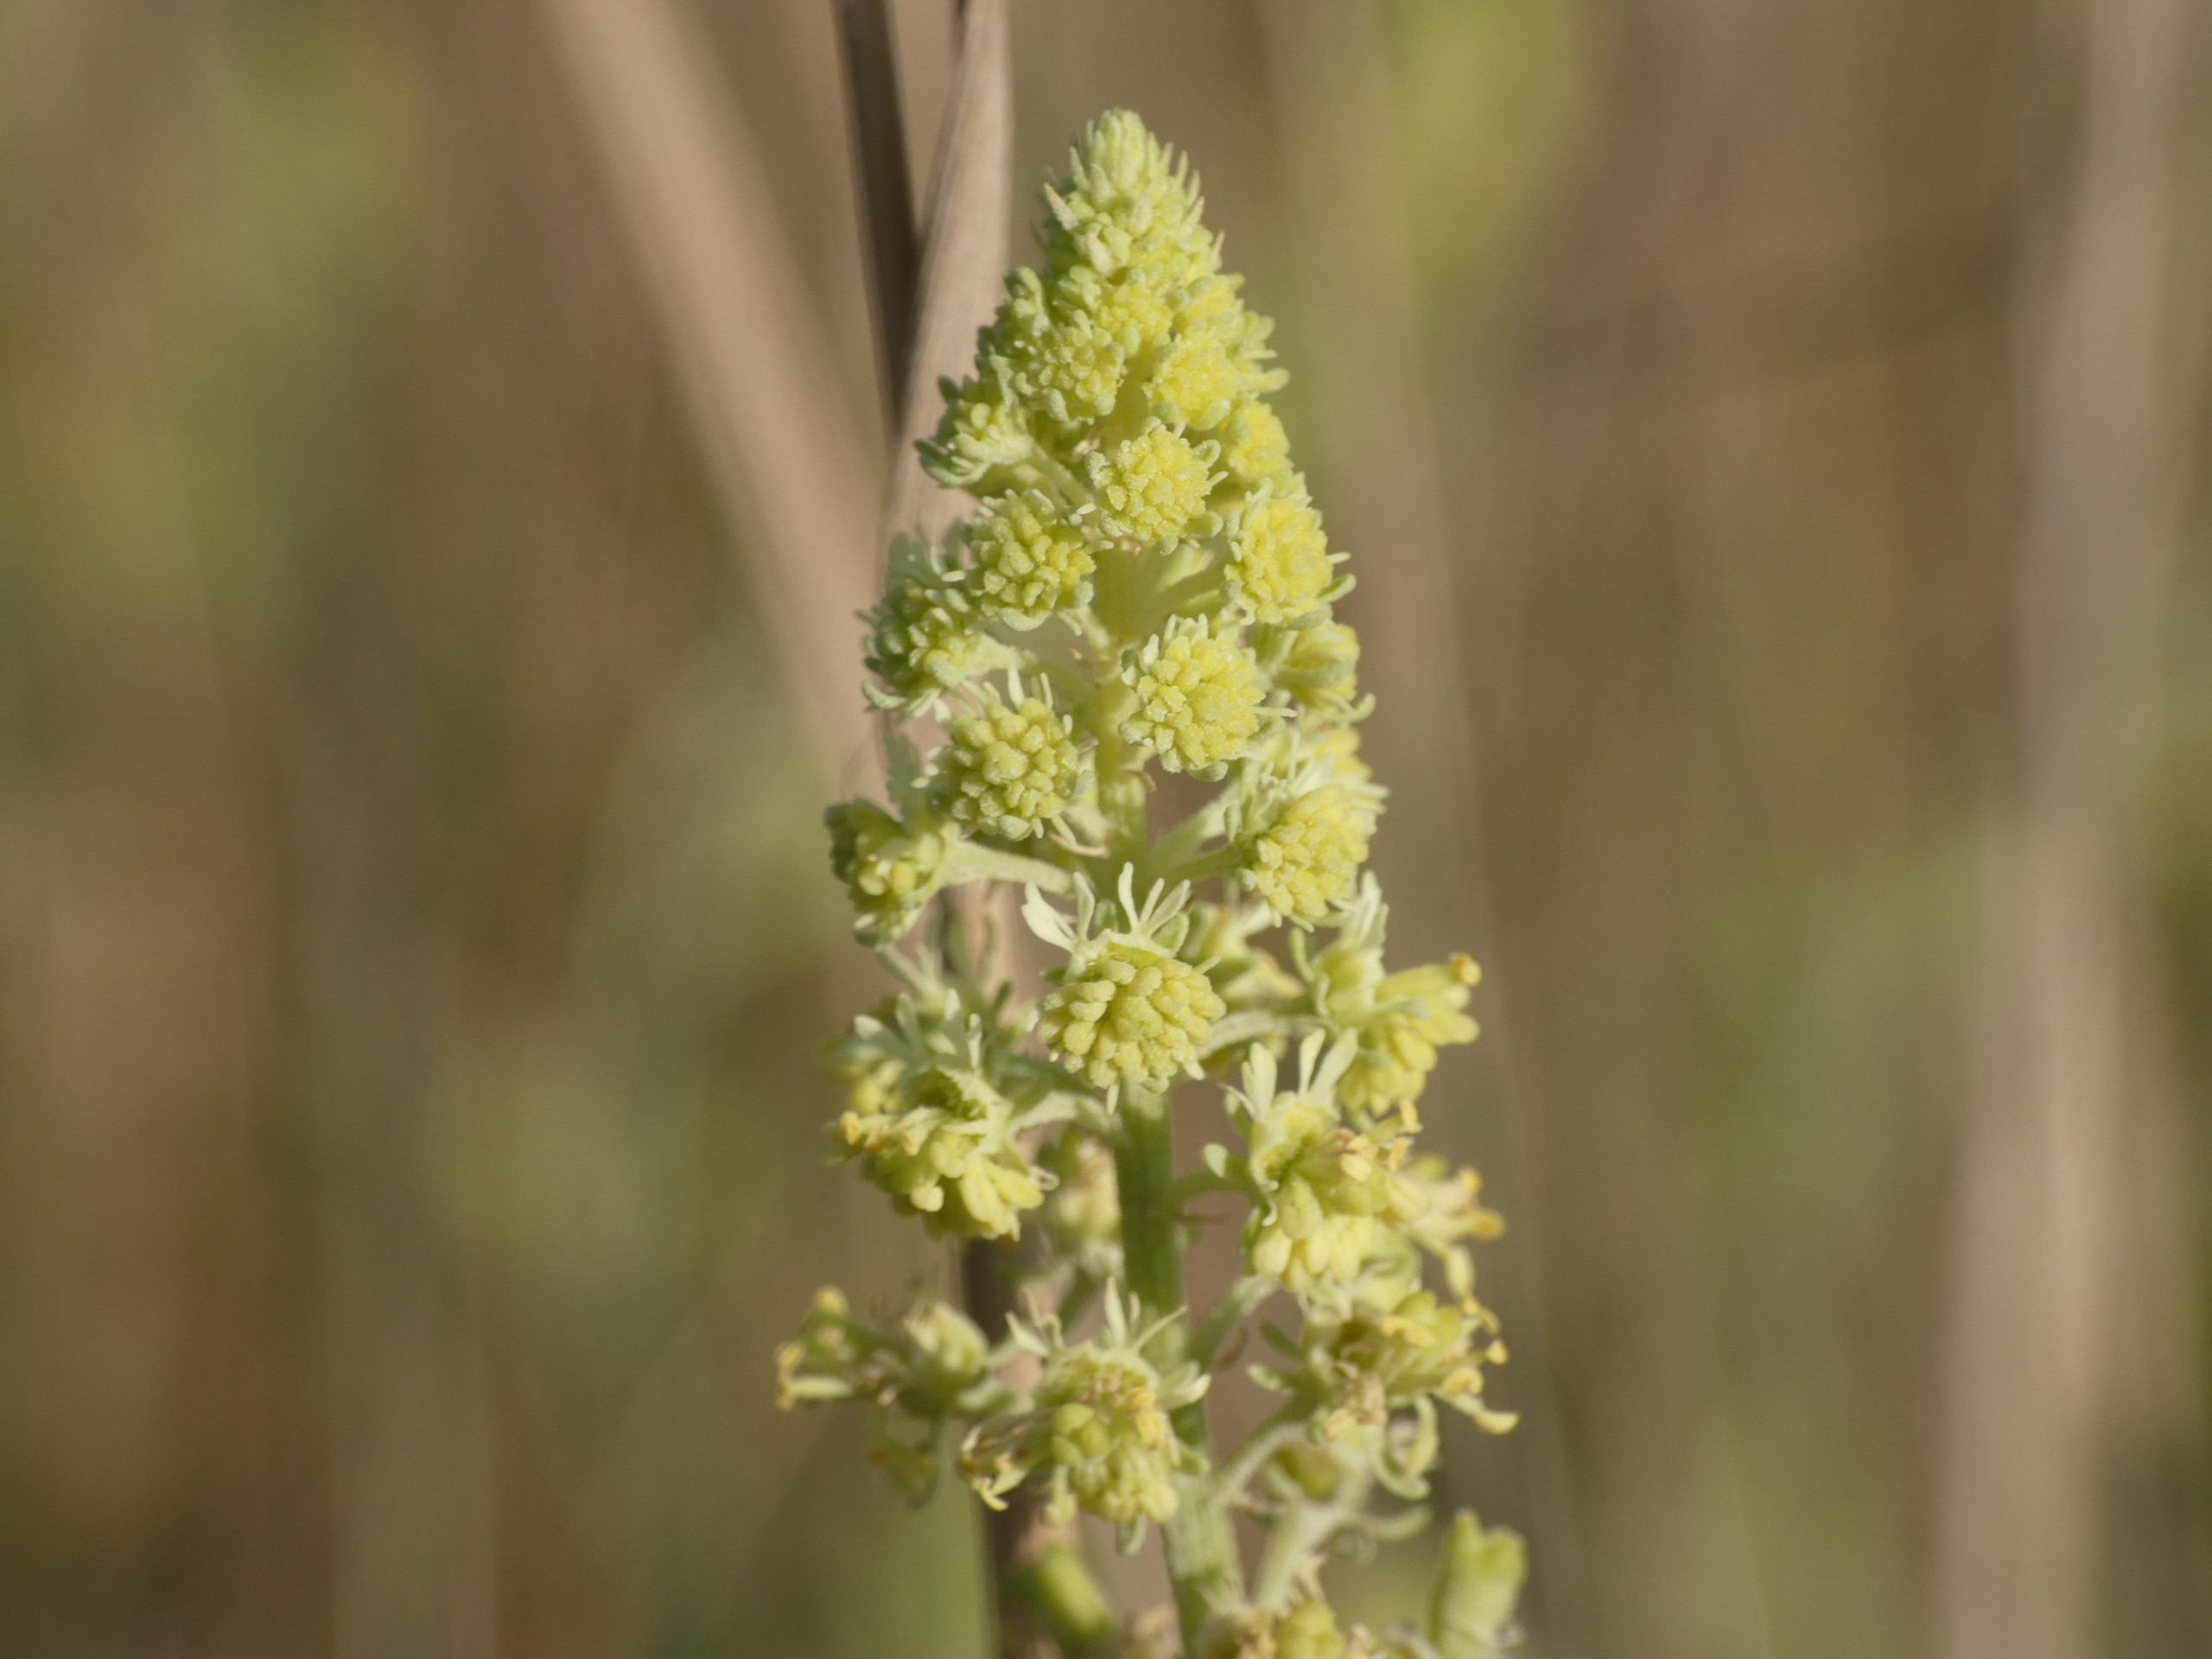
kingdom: Plantae
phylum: Tracheophyta
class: Magnoliopsida
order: Brassicales
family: Resedaceae
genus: Reseda
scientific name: Reseda lutea
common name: Gul reseda
